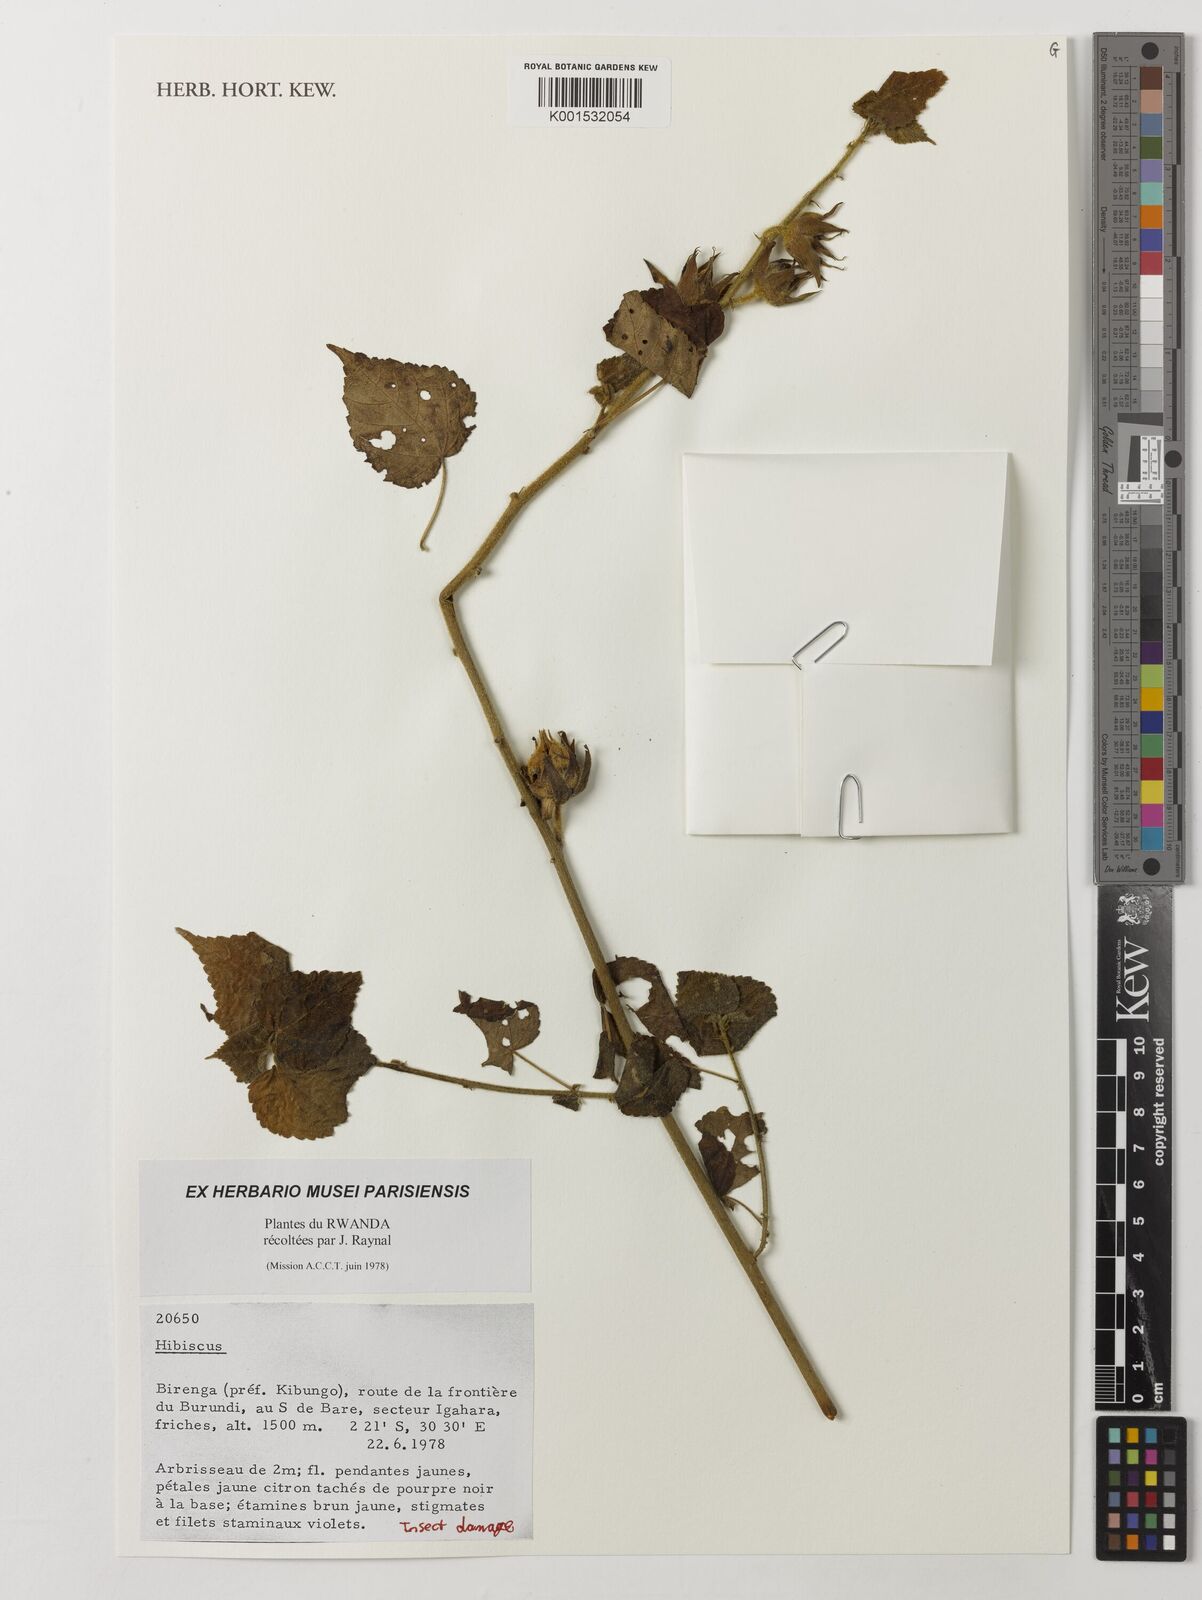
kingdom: Plantae
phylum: Tracheophyta
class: Magnoliopsida
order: Malvales
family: Malvaceae
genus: Hibiscus
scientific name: Hibiscus
